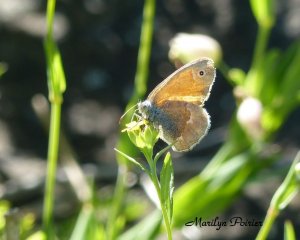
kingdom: Animalia
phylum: Arthropoda
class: Insecta
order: Lepidoptera
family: Nymphalidae
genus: Coenonympha
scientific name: Coenonympha tullia
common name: Large Heath
